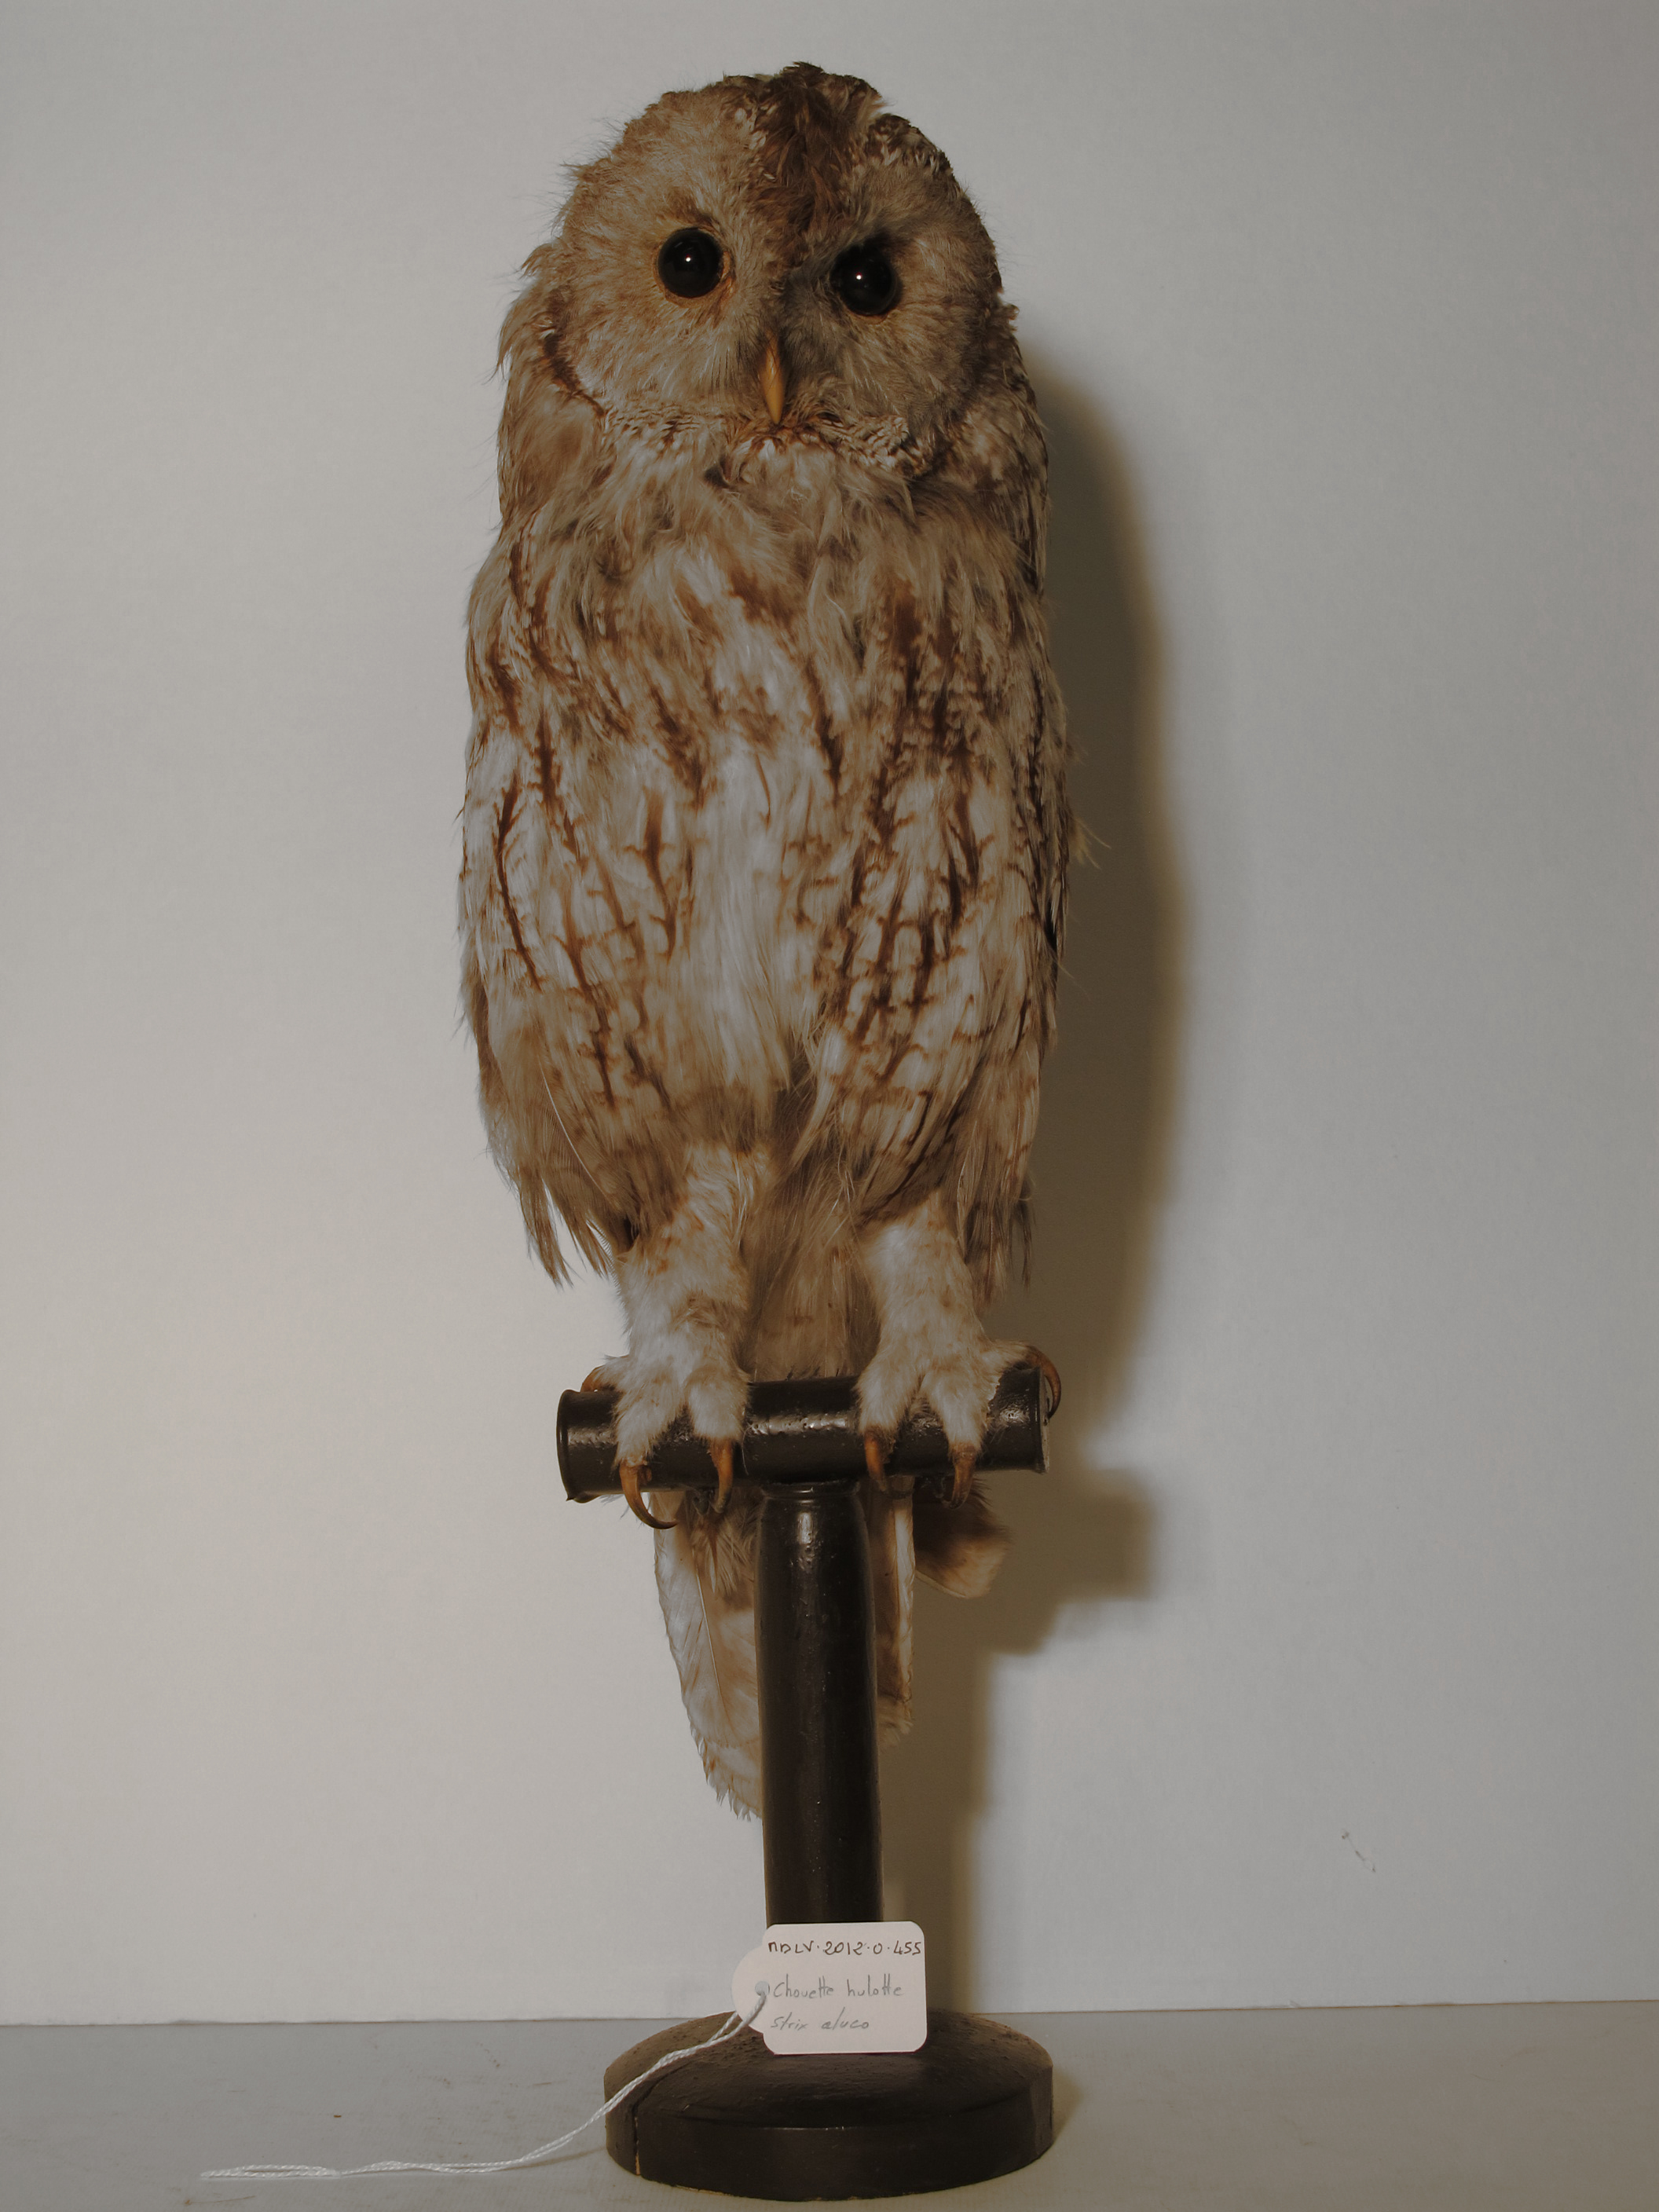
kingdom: Animalia
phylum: Chordata
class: Aves
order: Strigiformes
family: Strigidae
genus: Strix
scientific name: Strix aluco
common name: Tawny Owl
